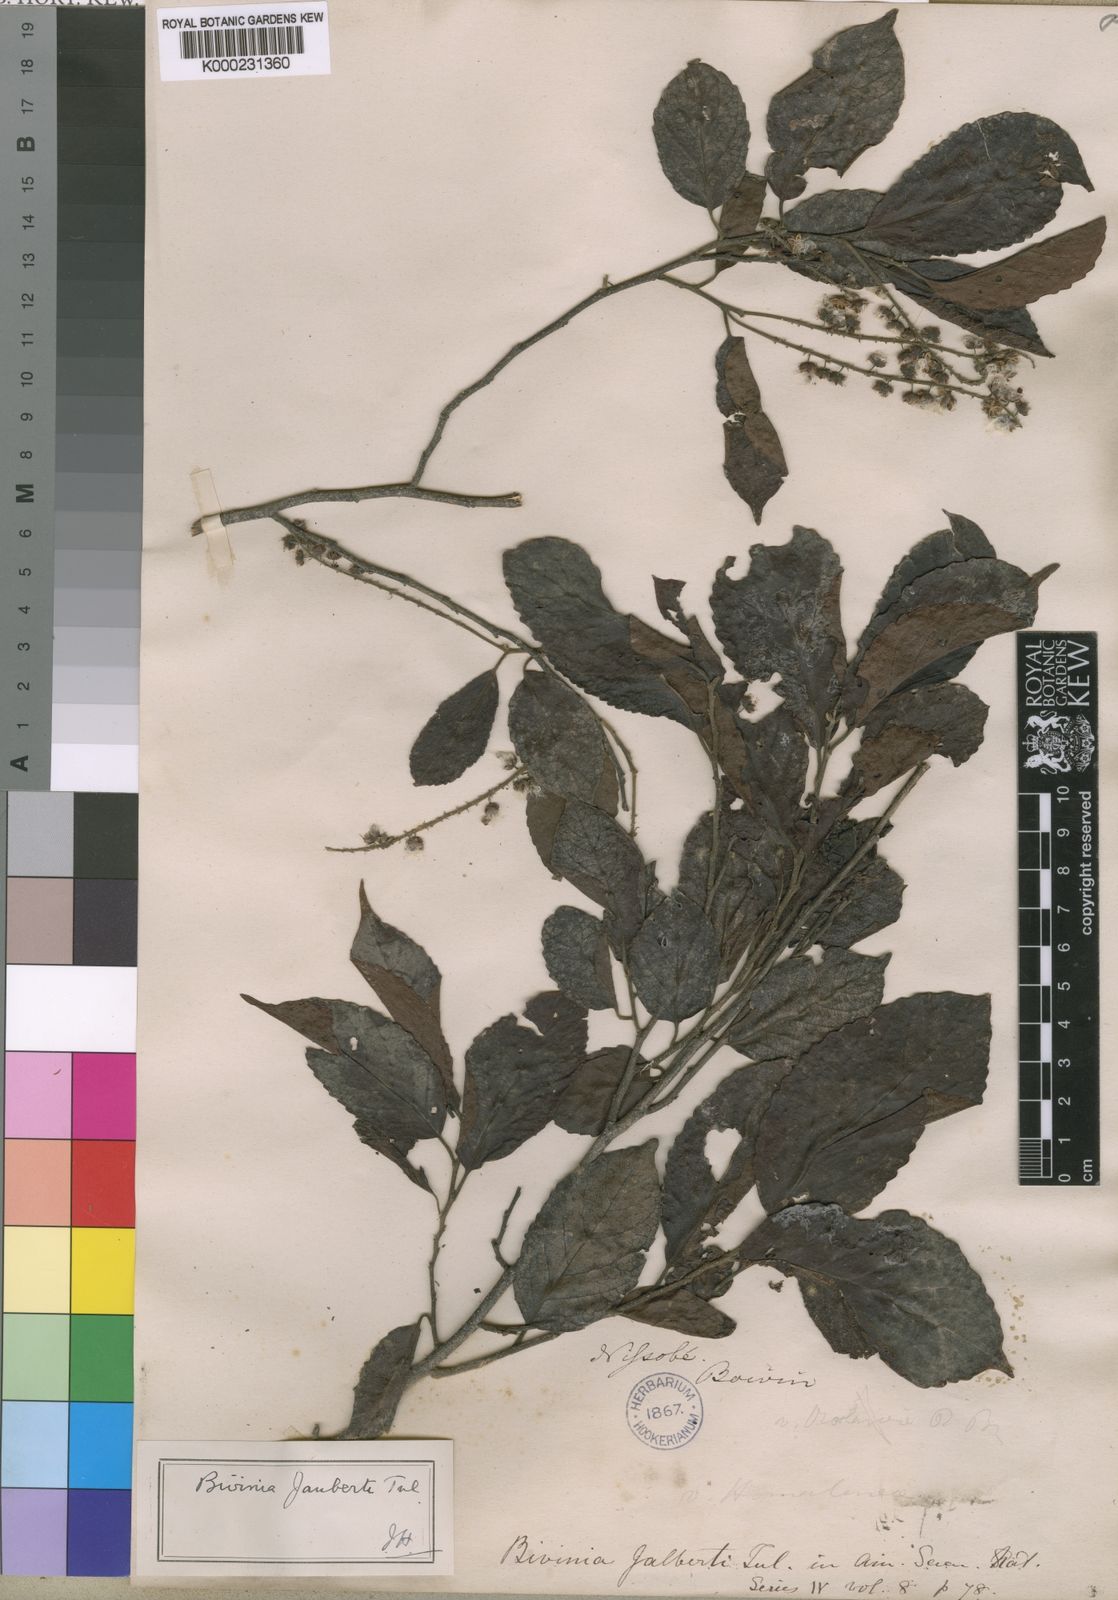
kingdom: Plantae
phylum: Tracheophyta
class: Magnoliopsida
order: Malpighiales
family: Salicaceae
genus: Bivinia
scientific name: Bivinia jalbertii
